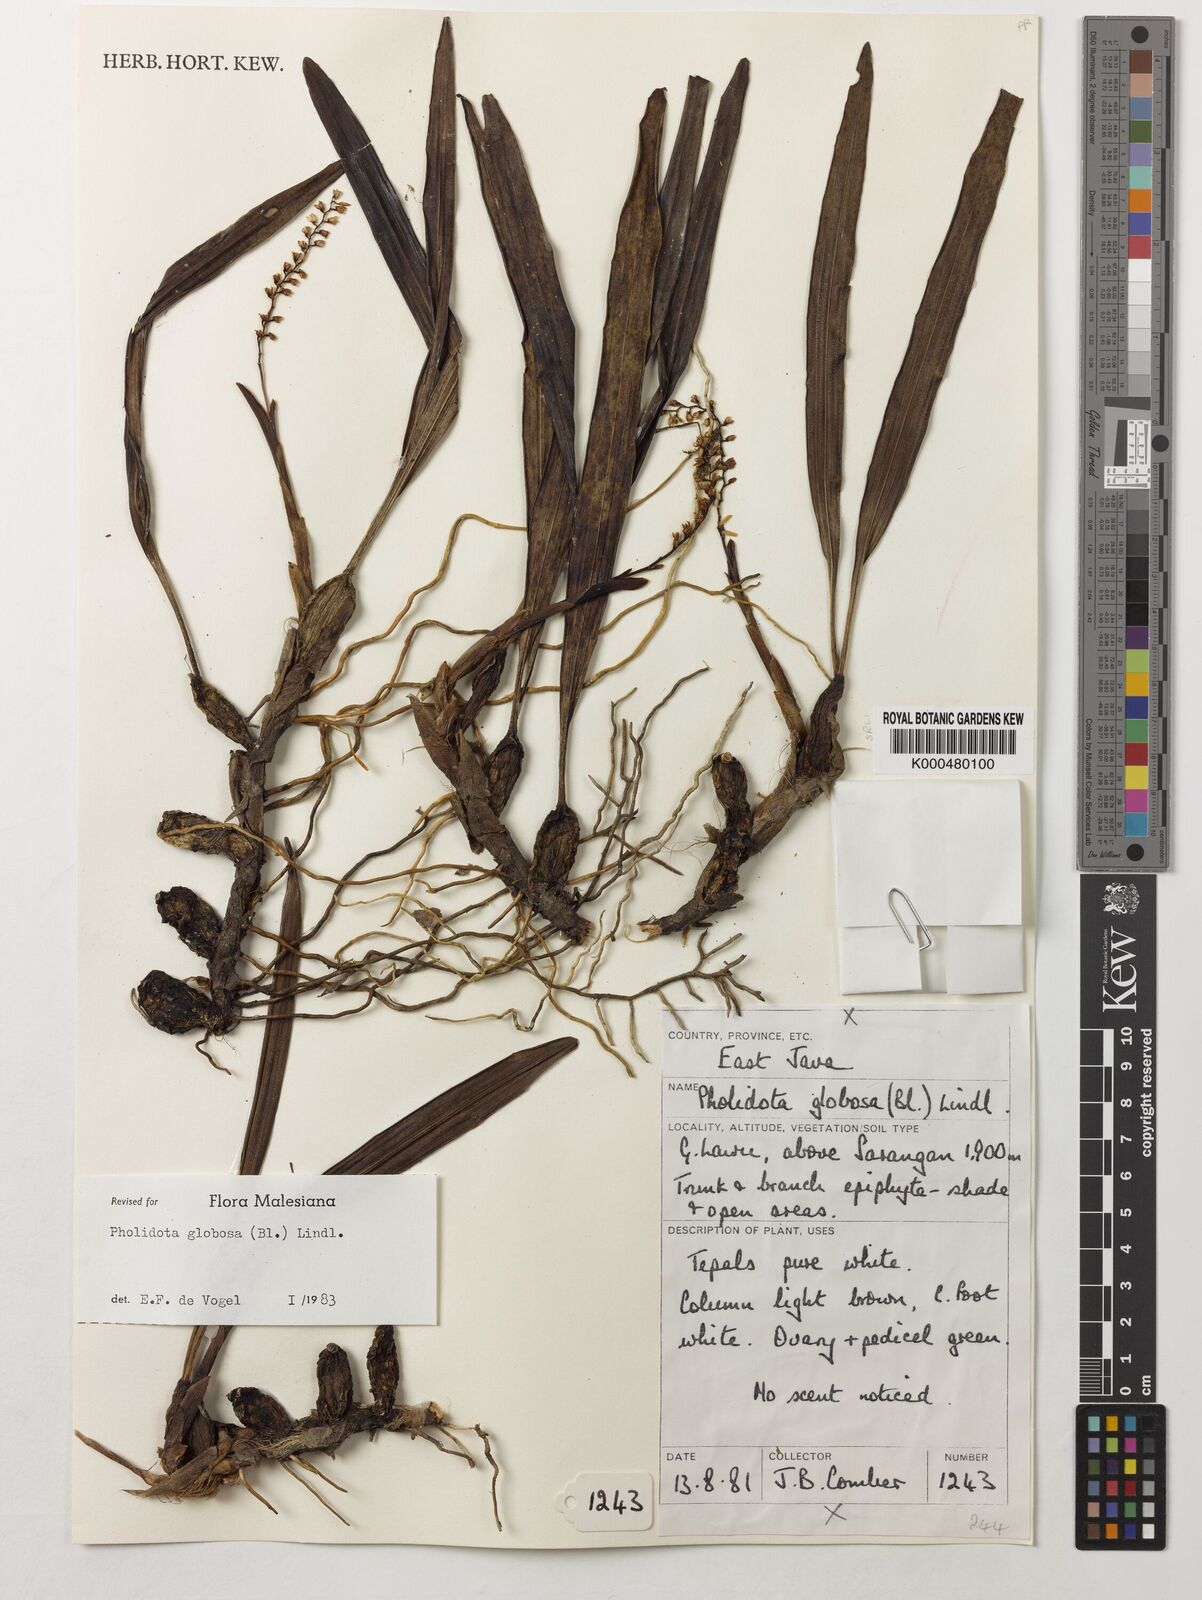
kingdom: Plantae
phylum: Tracheophyta
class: Liliopsida
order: Asparagales
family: Orchidaceae
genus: Coelogyne
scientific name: Coelogyne globosa
